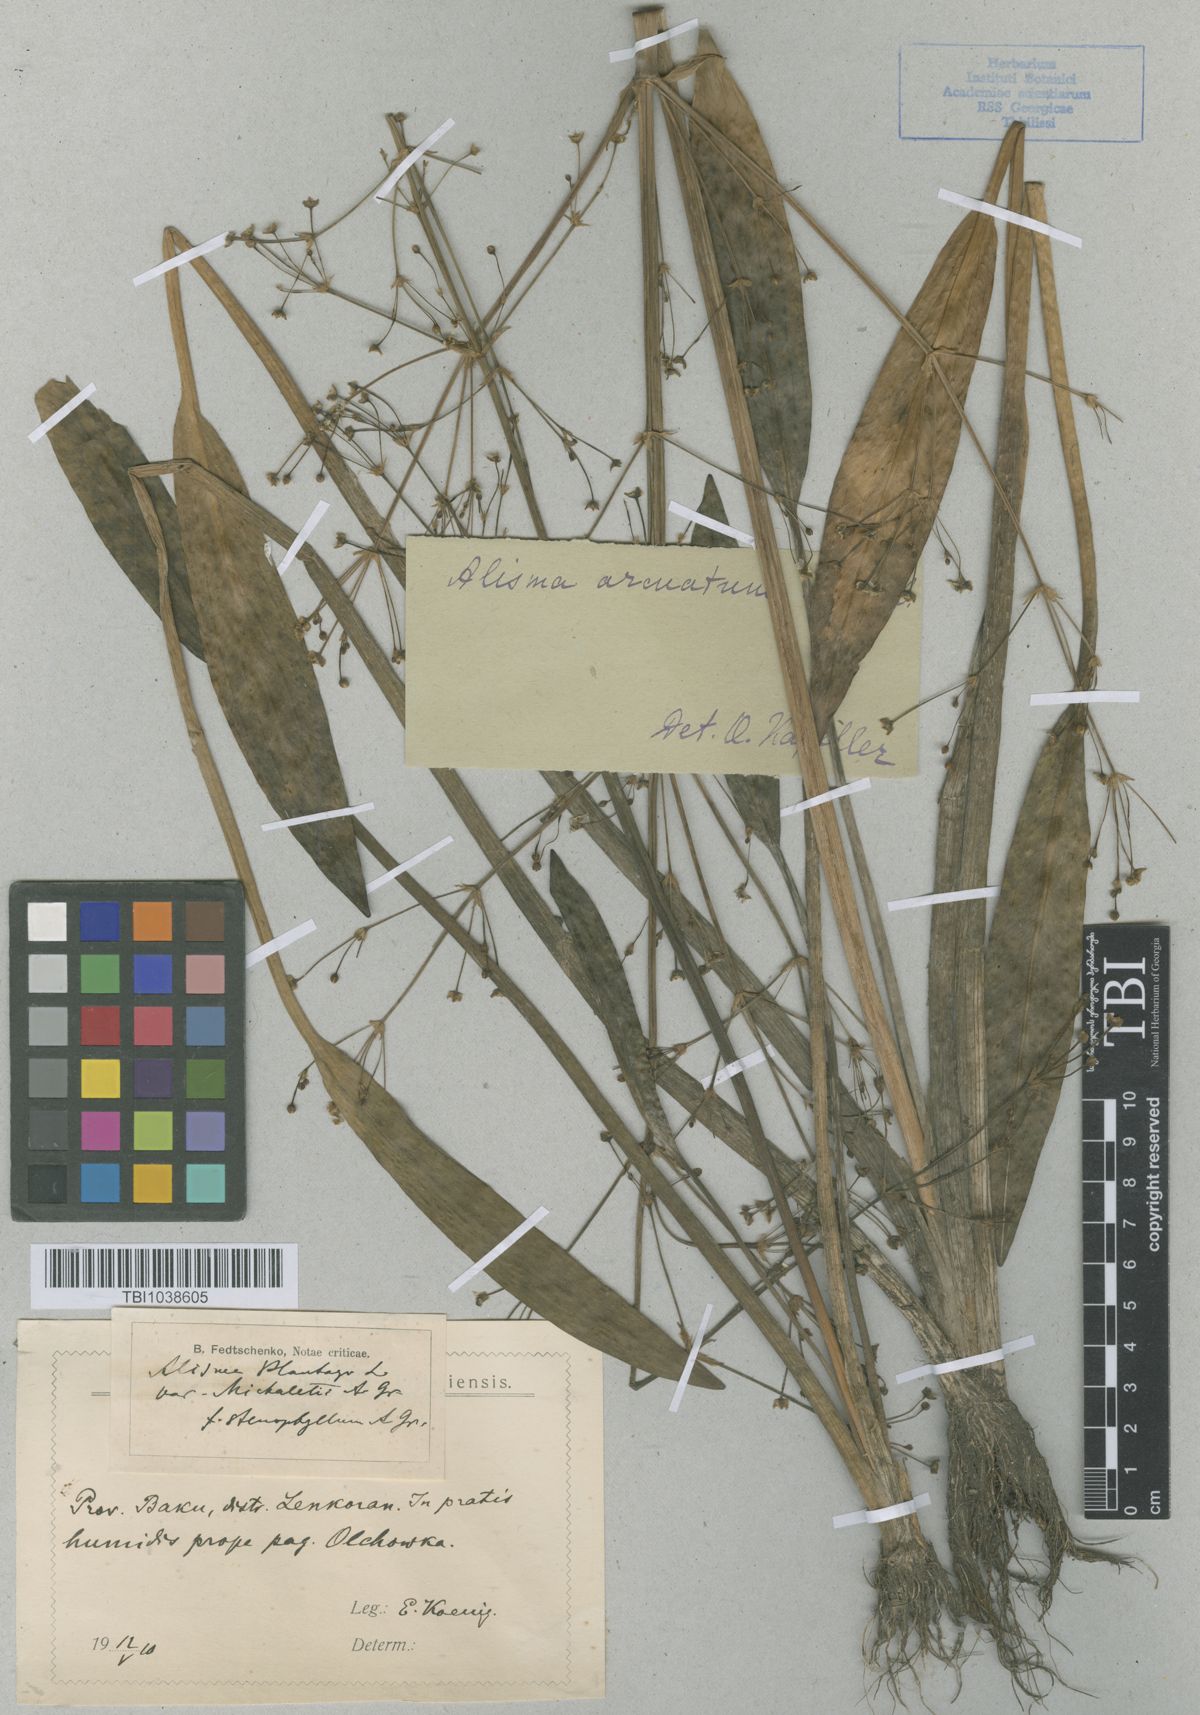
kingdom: Plantae
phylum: Tracheophyta
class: Liliopsida
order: Alismatales
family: Alismataceae
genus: Alisma
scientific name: Alisma gramineum
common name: Ribbon-leaved water-plantain
